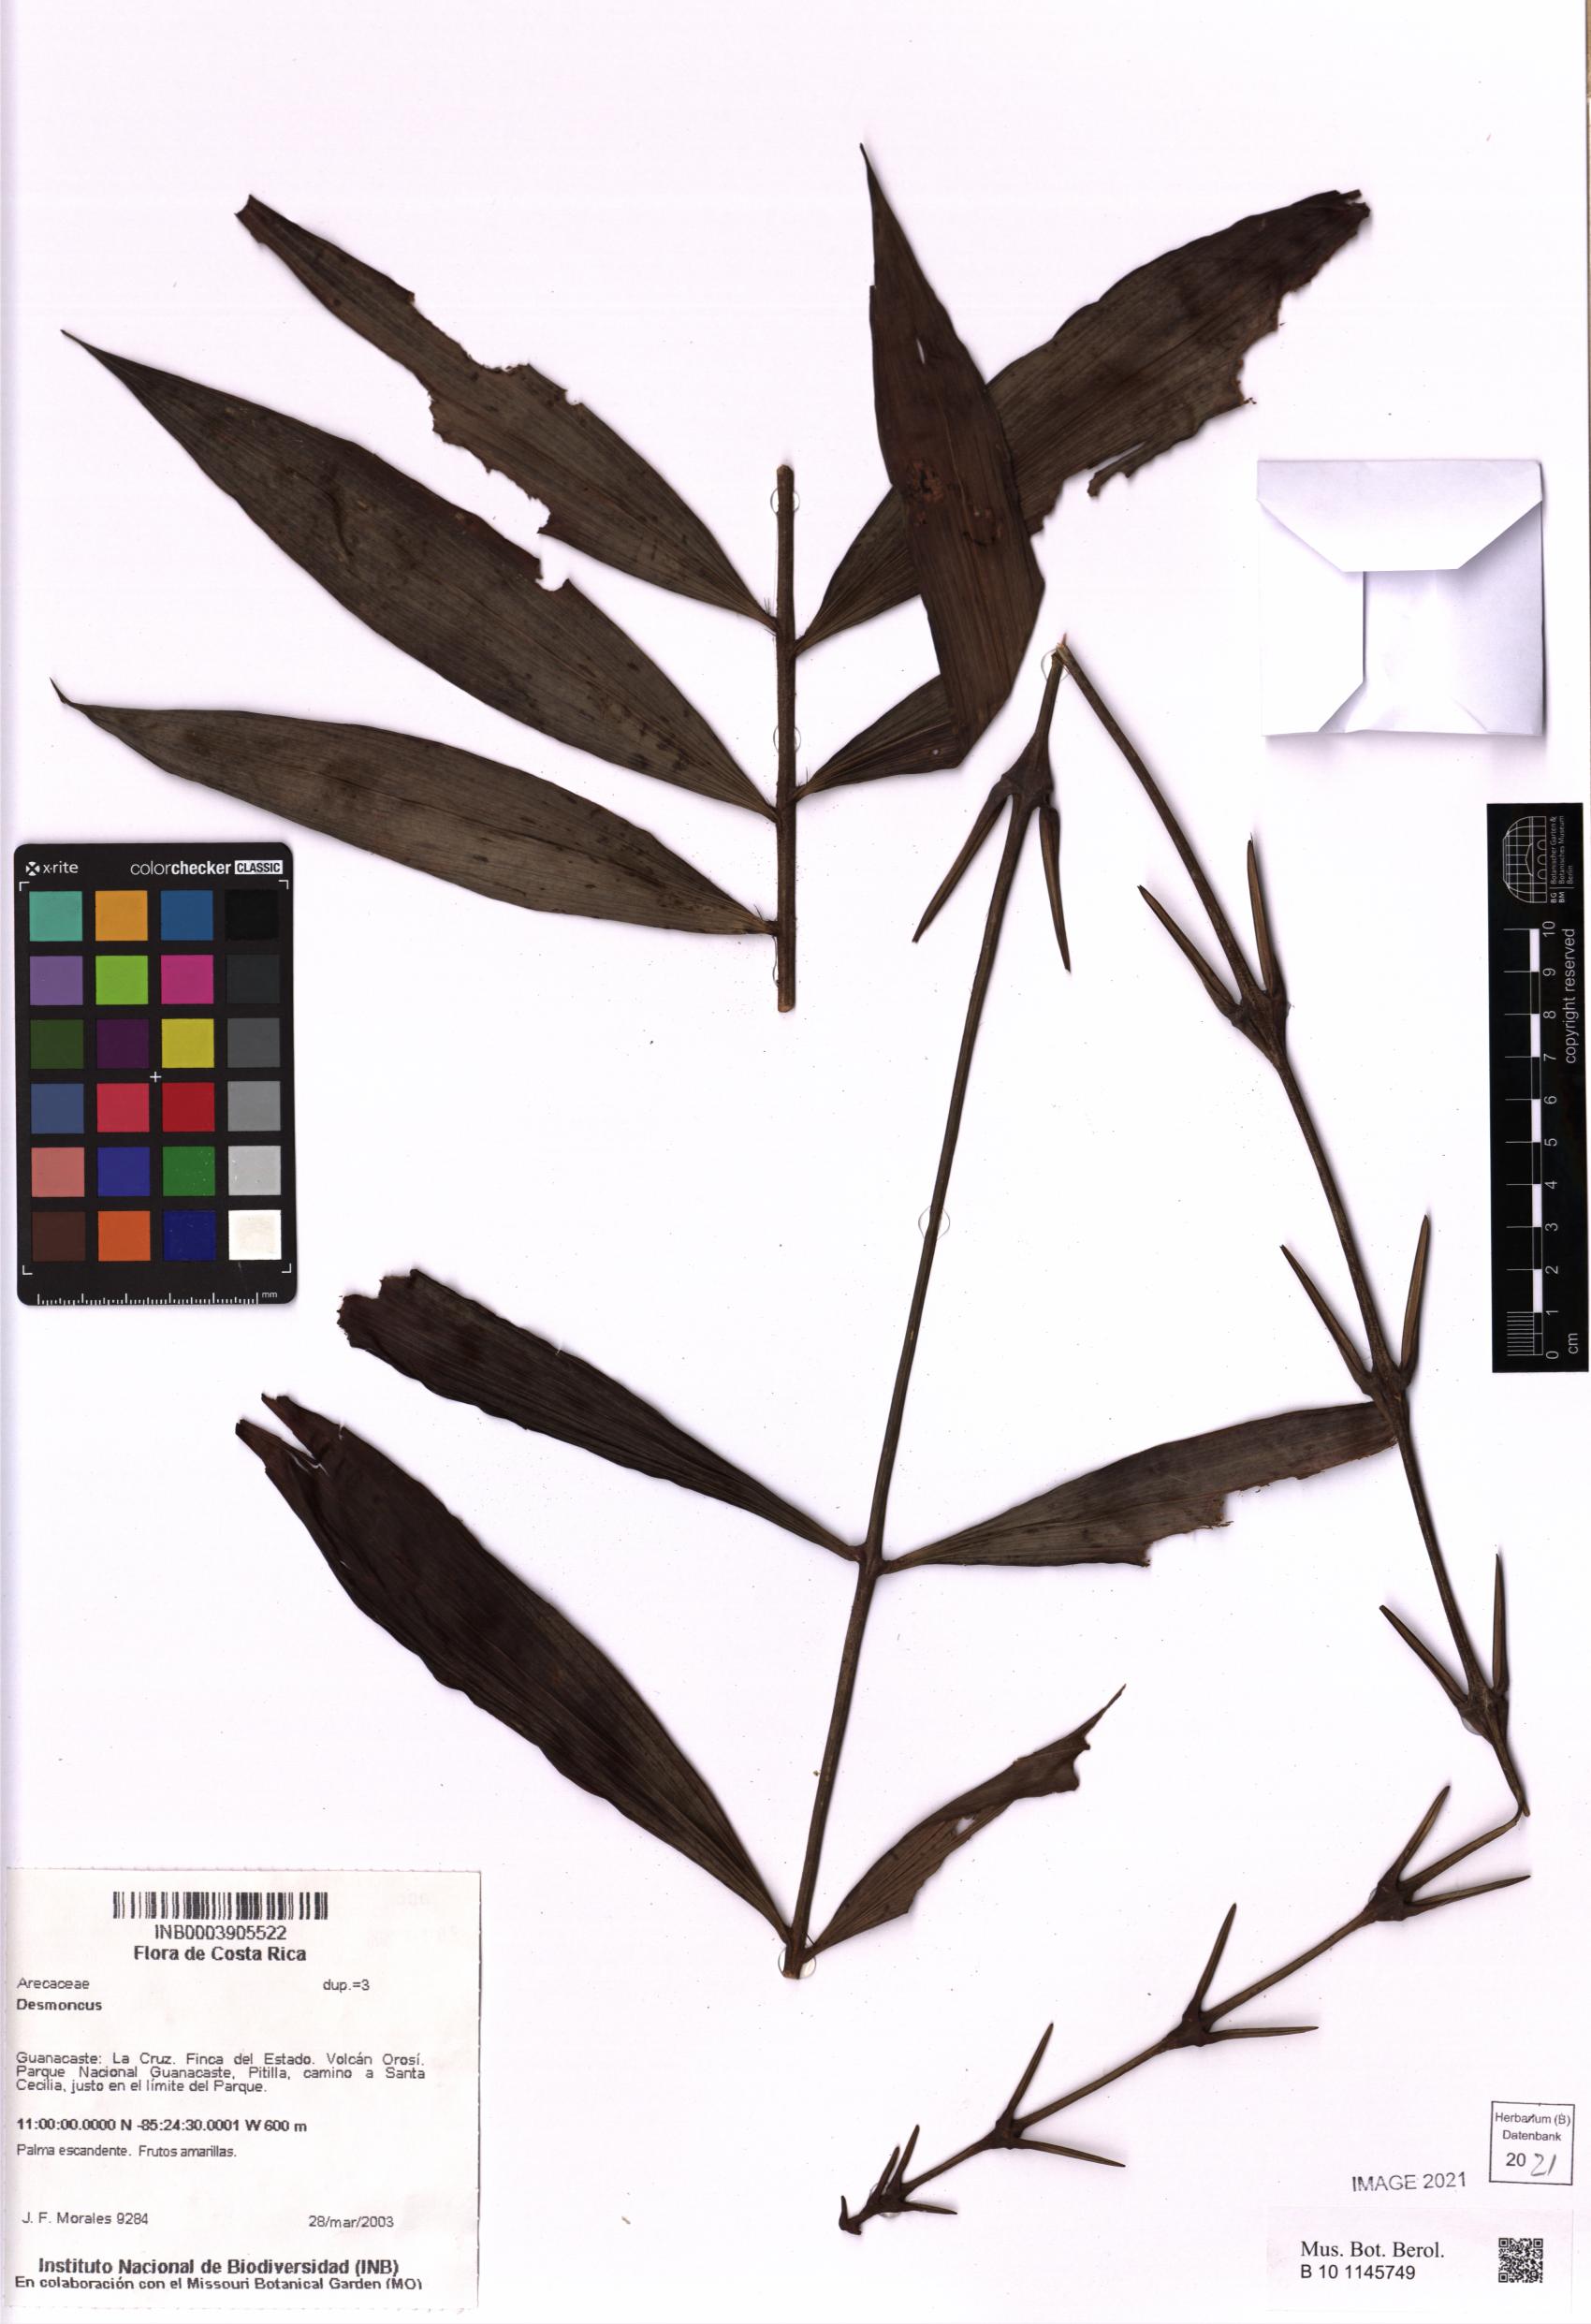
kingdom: Plantae
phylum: Tracheophyta
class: Liliopsida
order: Arecales
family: Arecaceae
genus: Desmoncus
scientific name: Desmoncus
